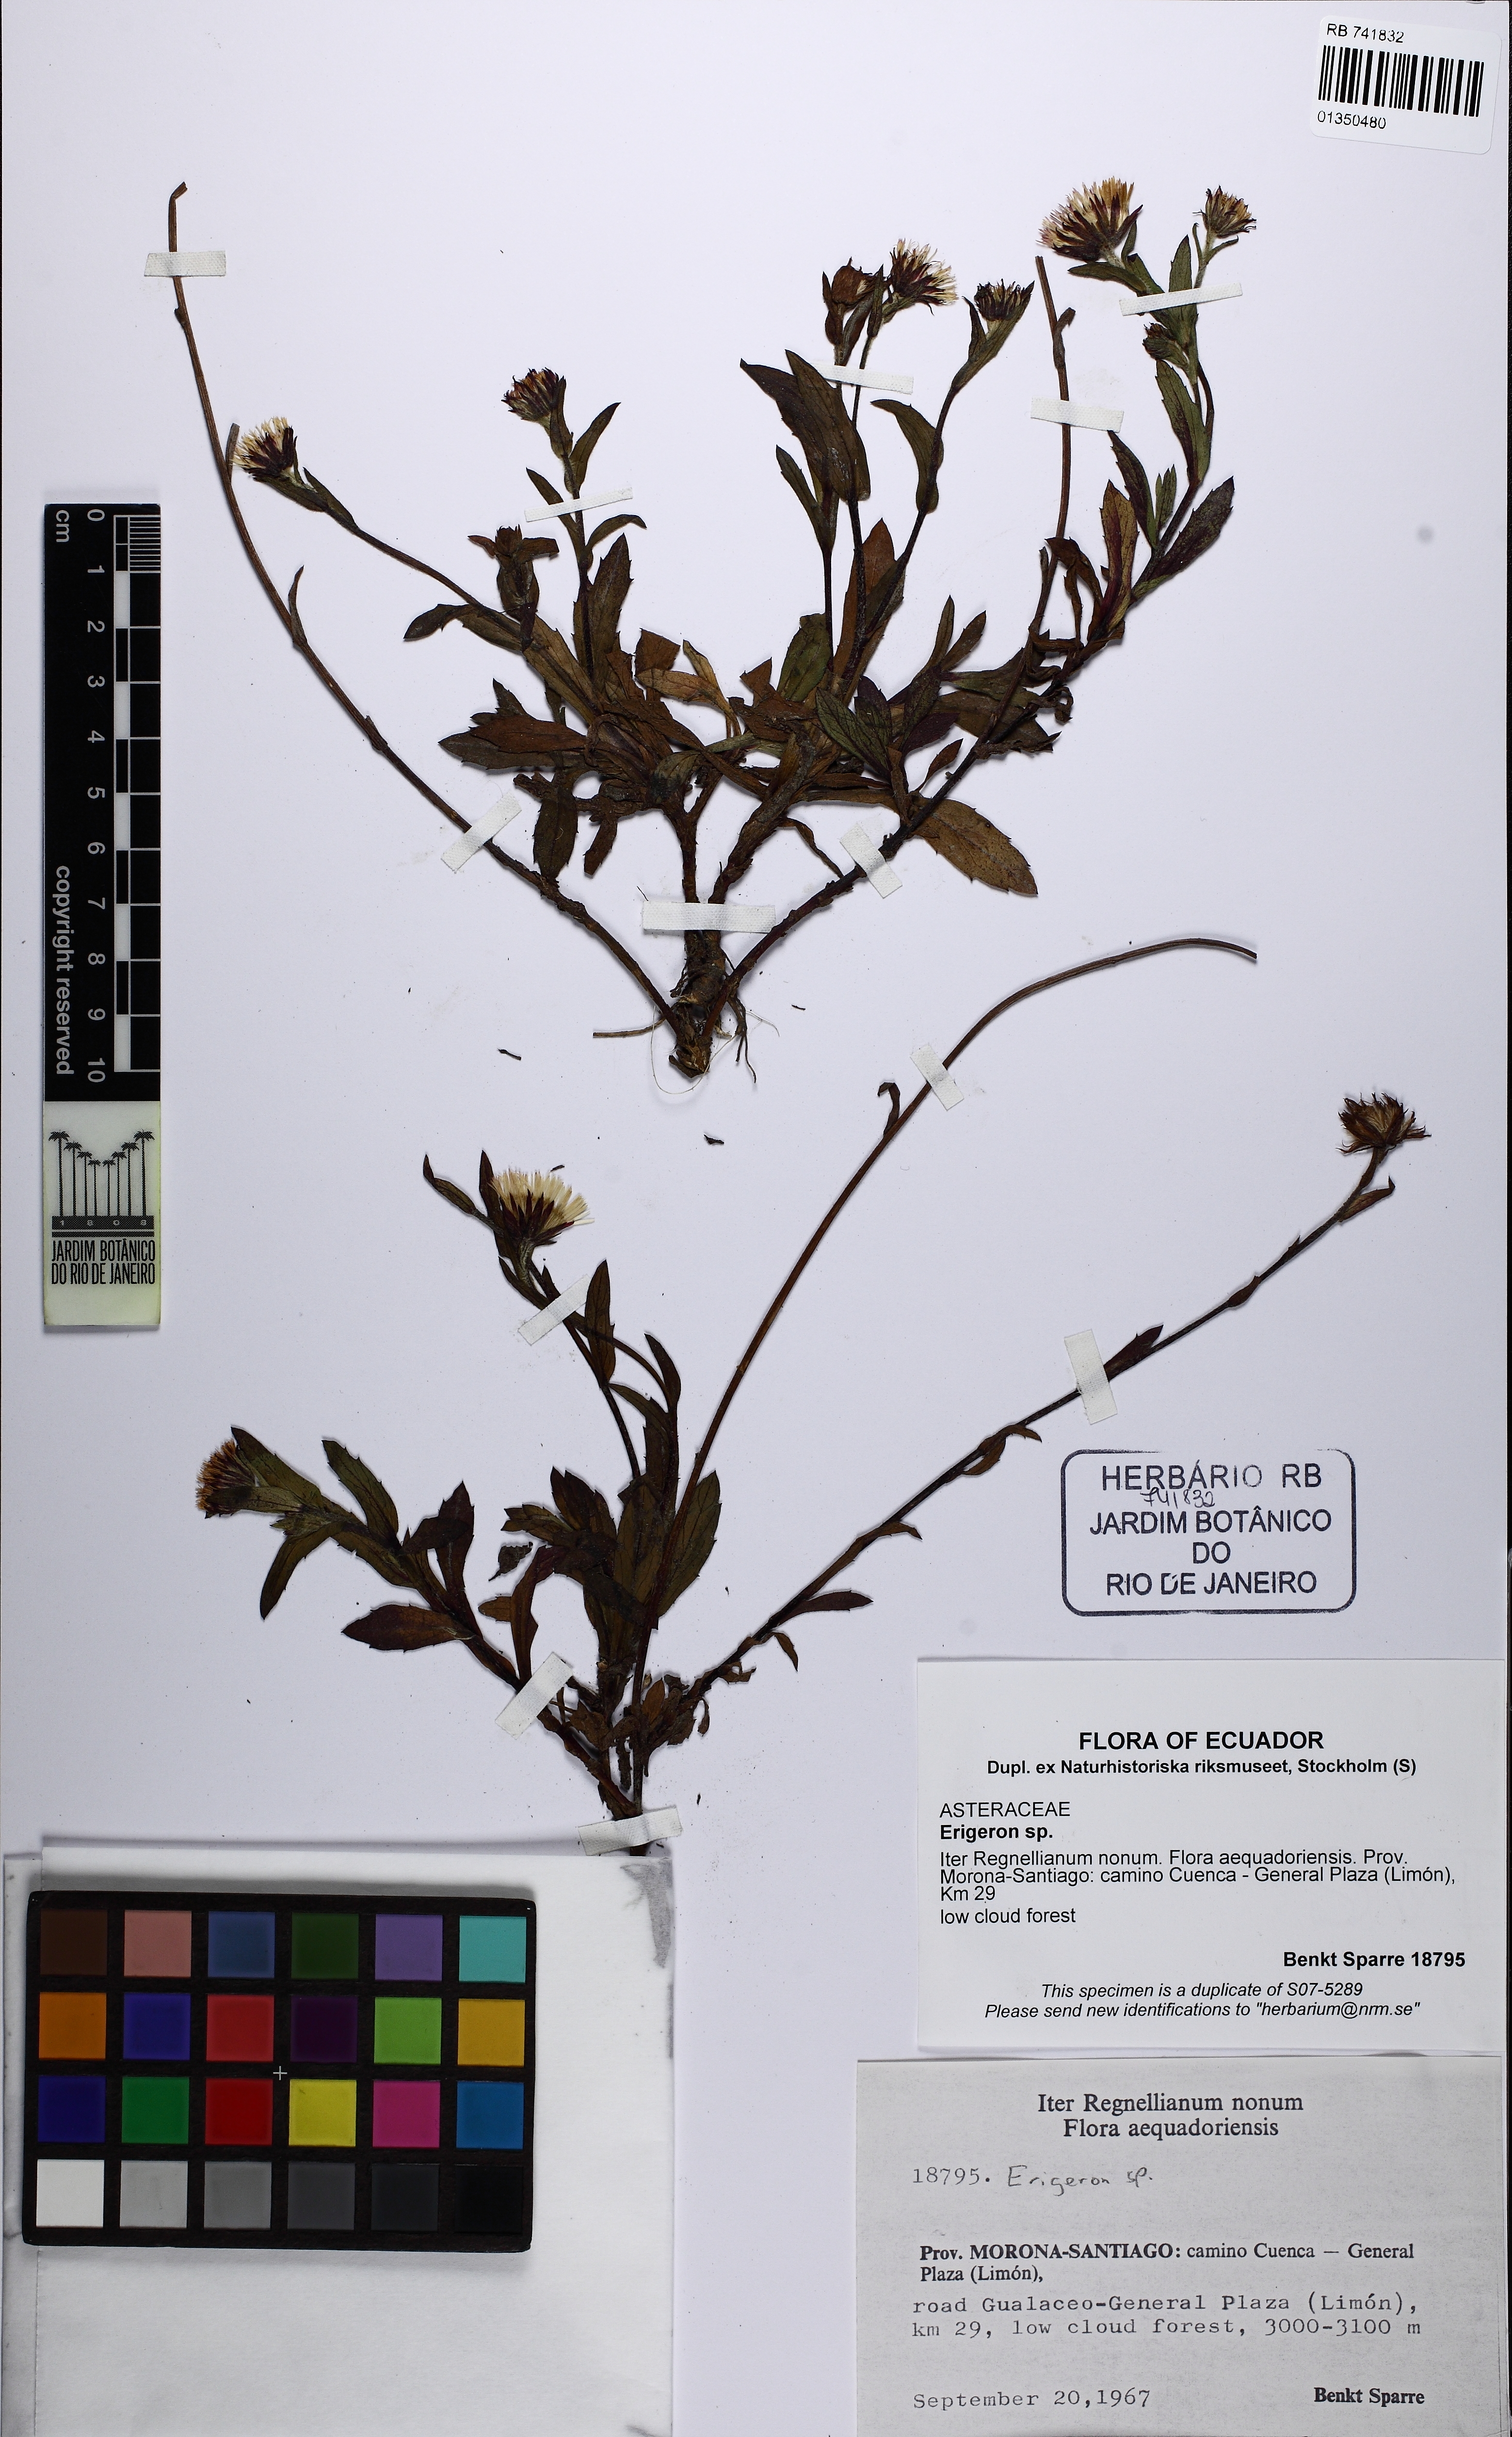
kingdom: Plantae
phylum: Tracheophyta
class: Magnoliopsida
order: Asterales
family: Asteraceae
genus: Erigeron
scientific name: Erigeron
